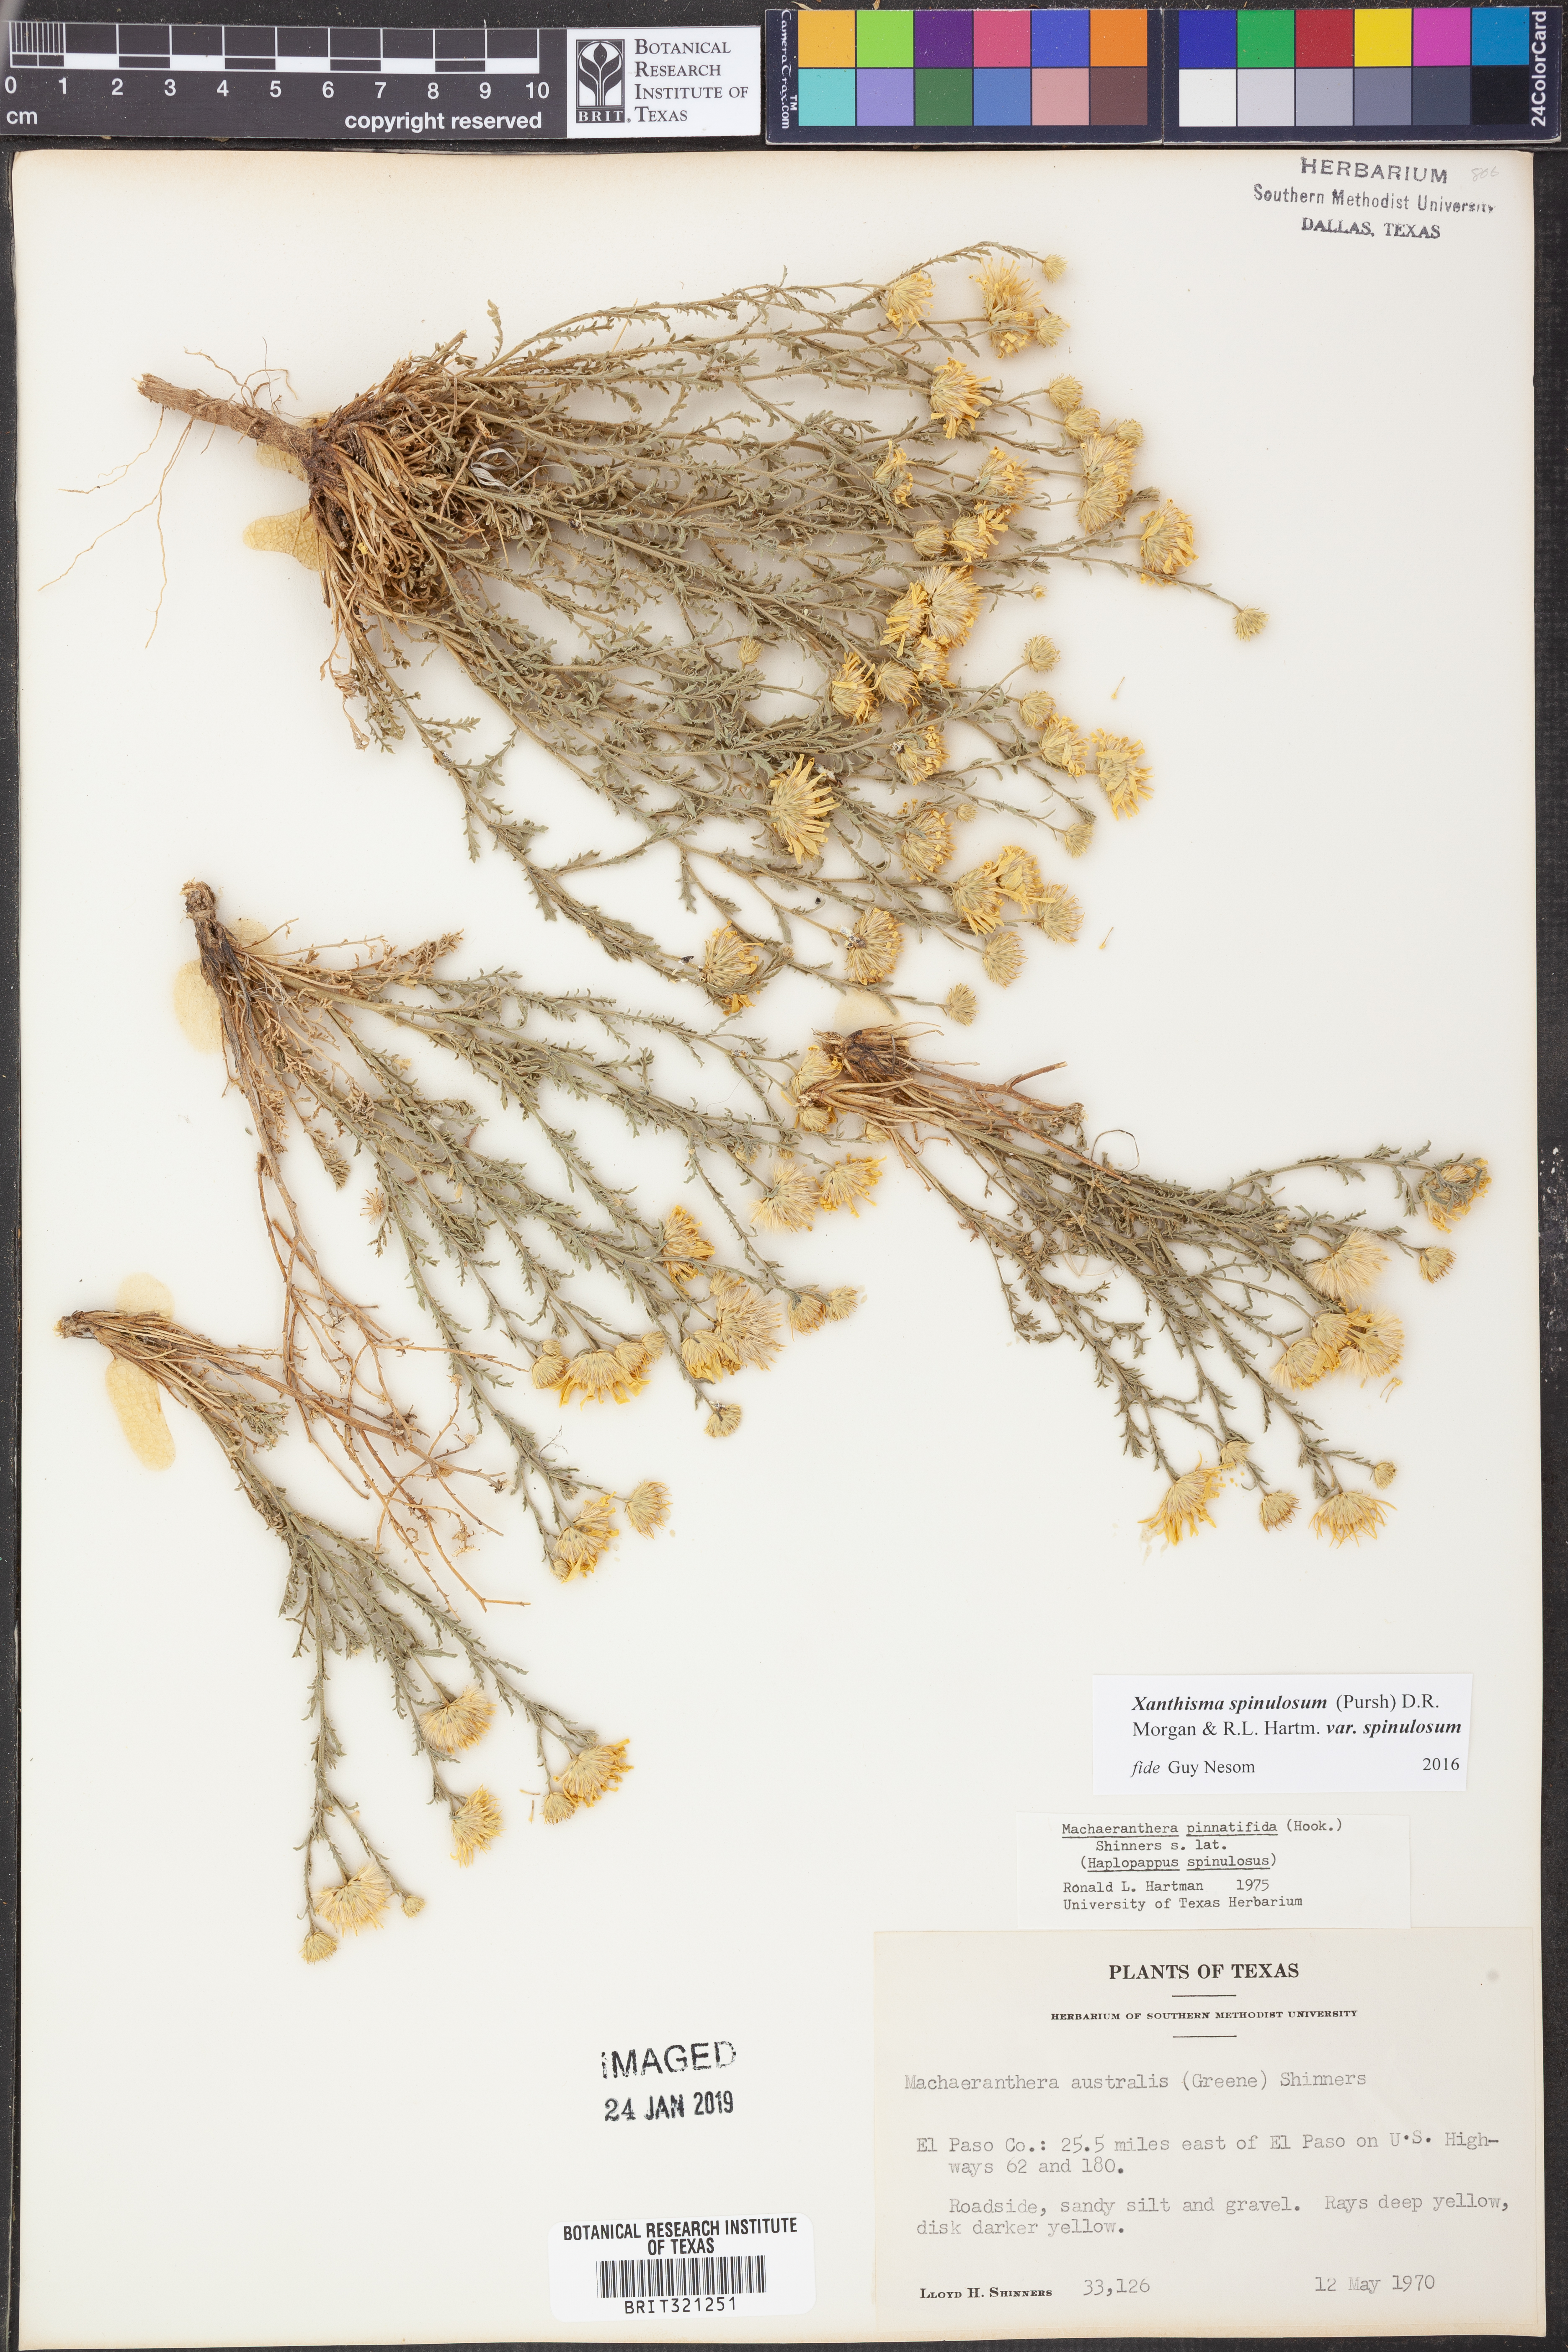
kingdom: Plantae
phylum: Tracheophyta
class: Magnoliopsida
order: Asterales
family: Asteraceae
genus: Xanthisma
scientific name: Xanthisma spinulosum
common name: Spiny goldenweed
